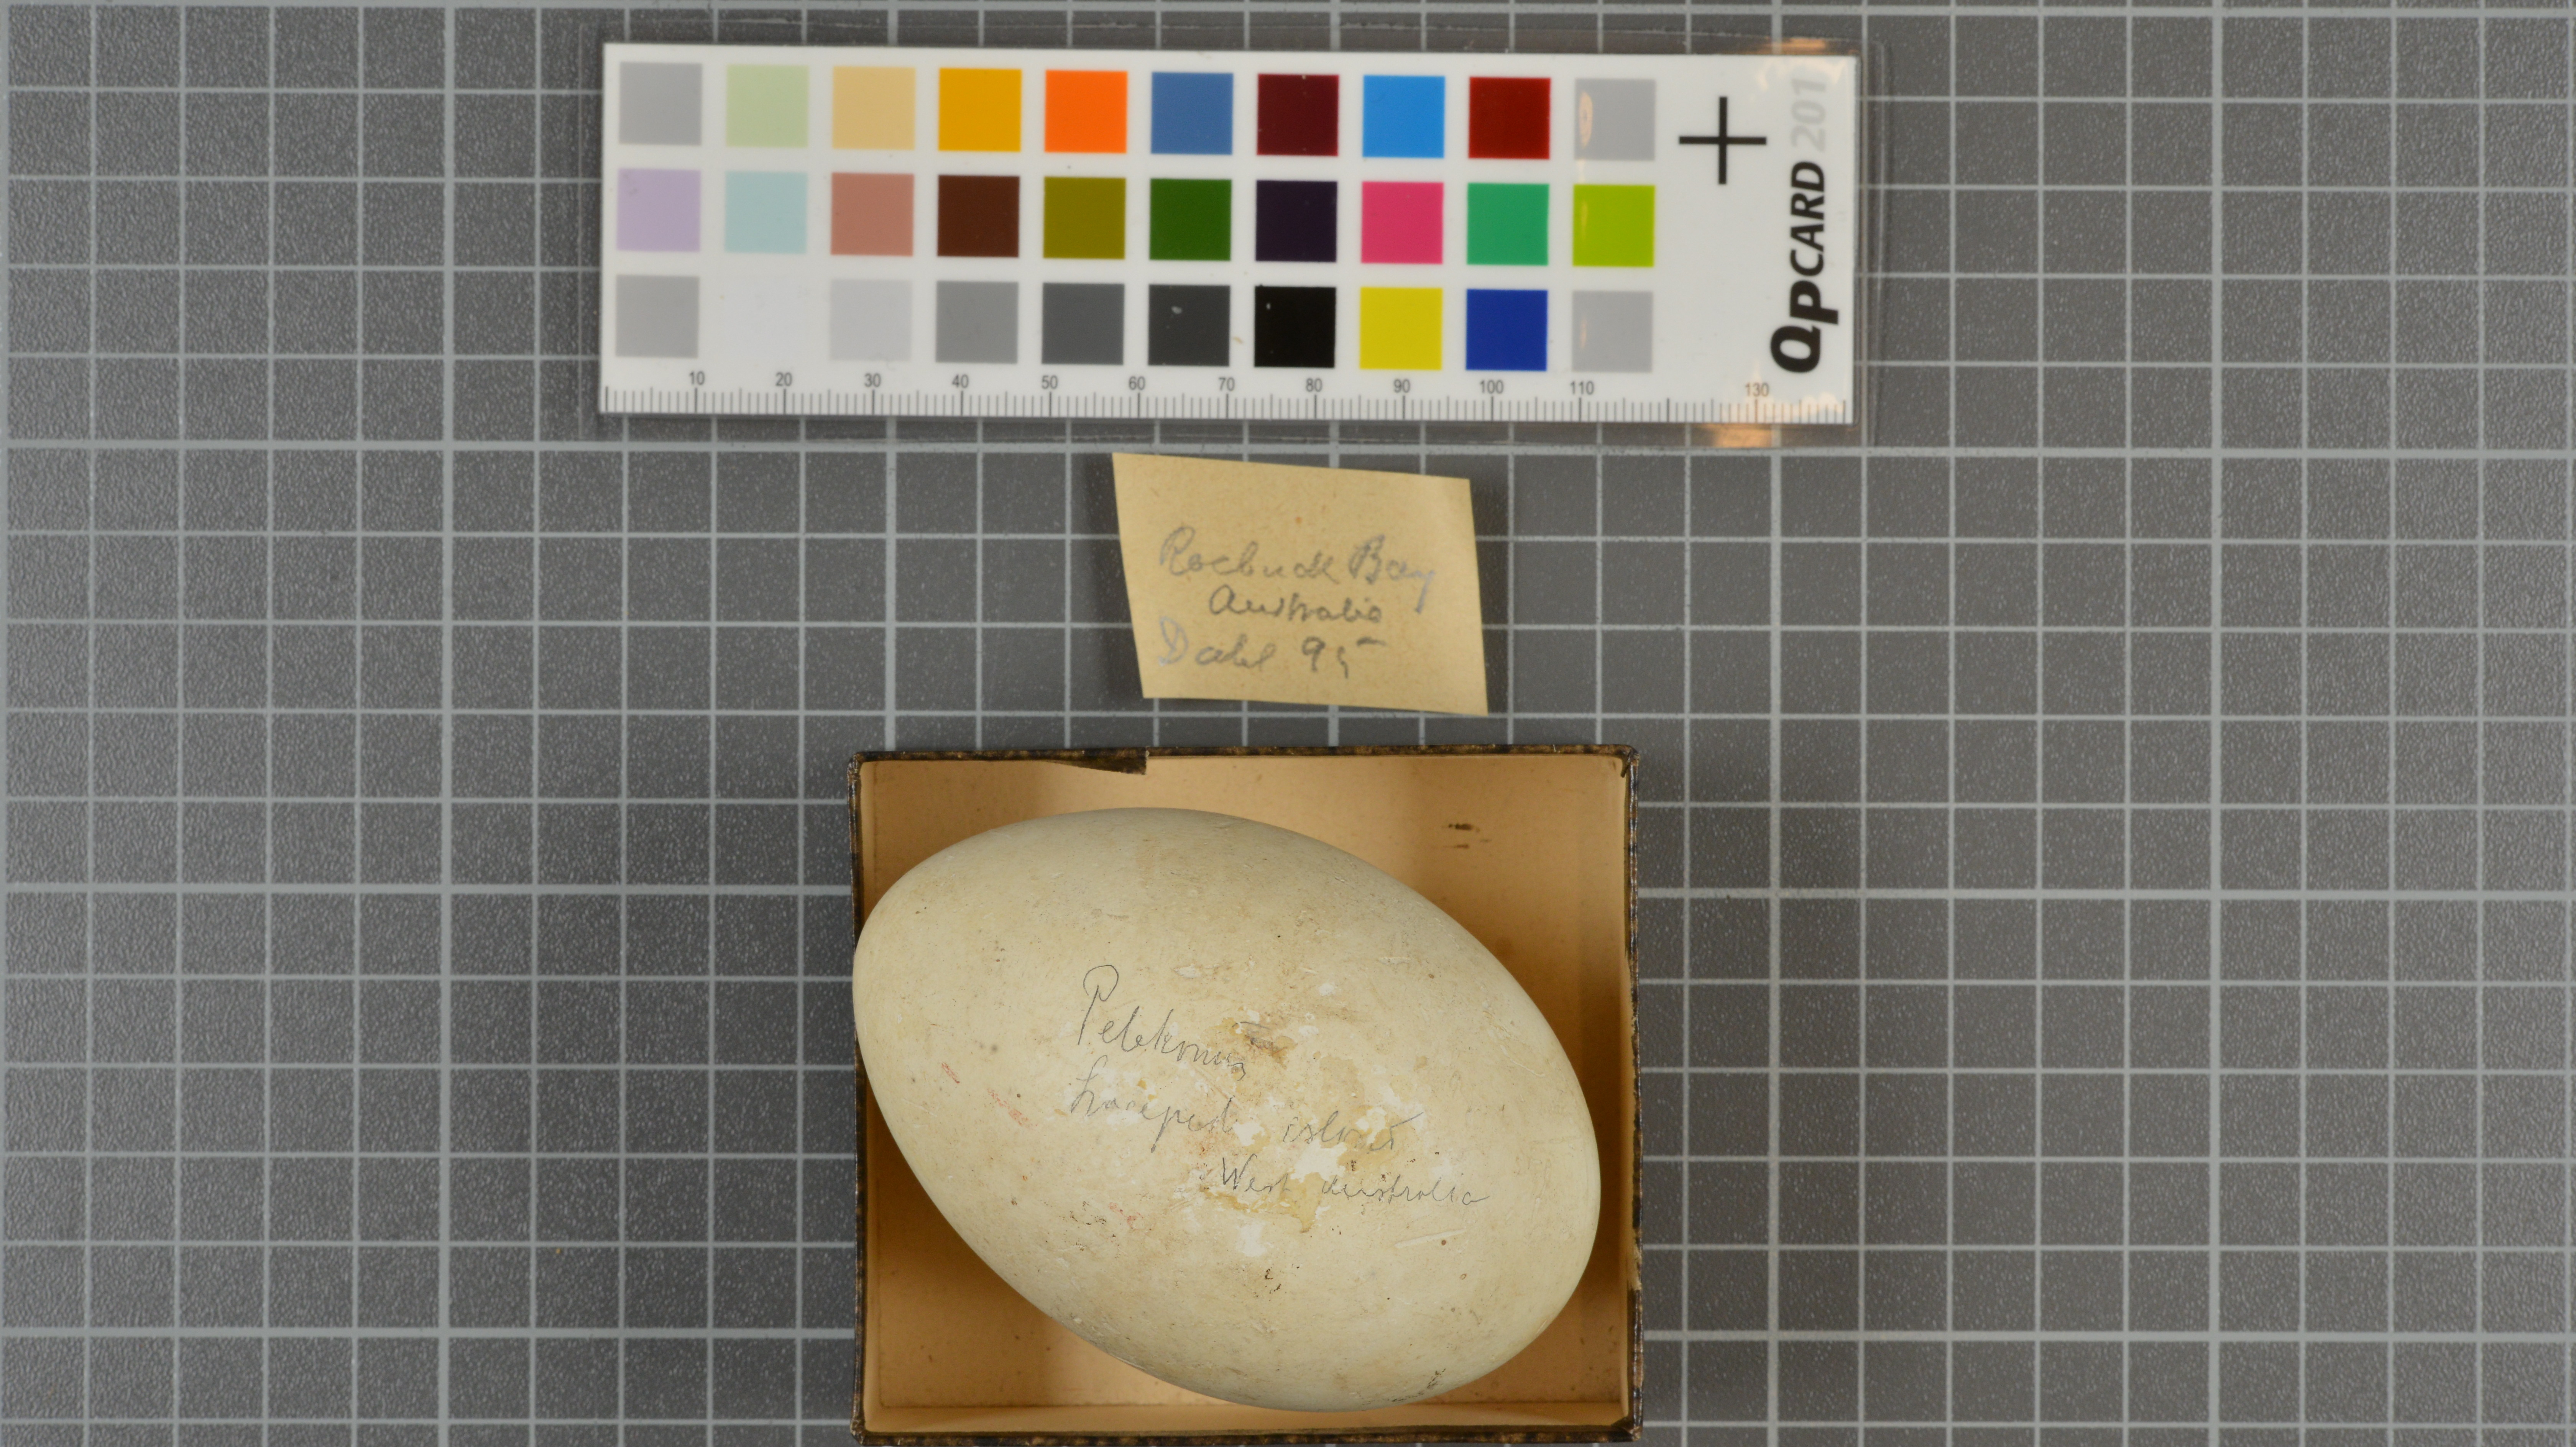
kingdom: Animalia
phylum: Chordata
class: Aves
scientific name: Aves
